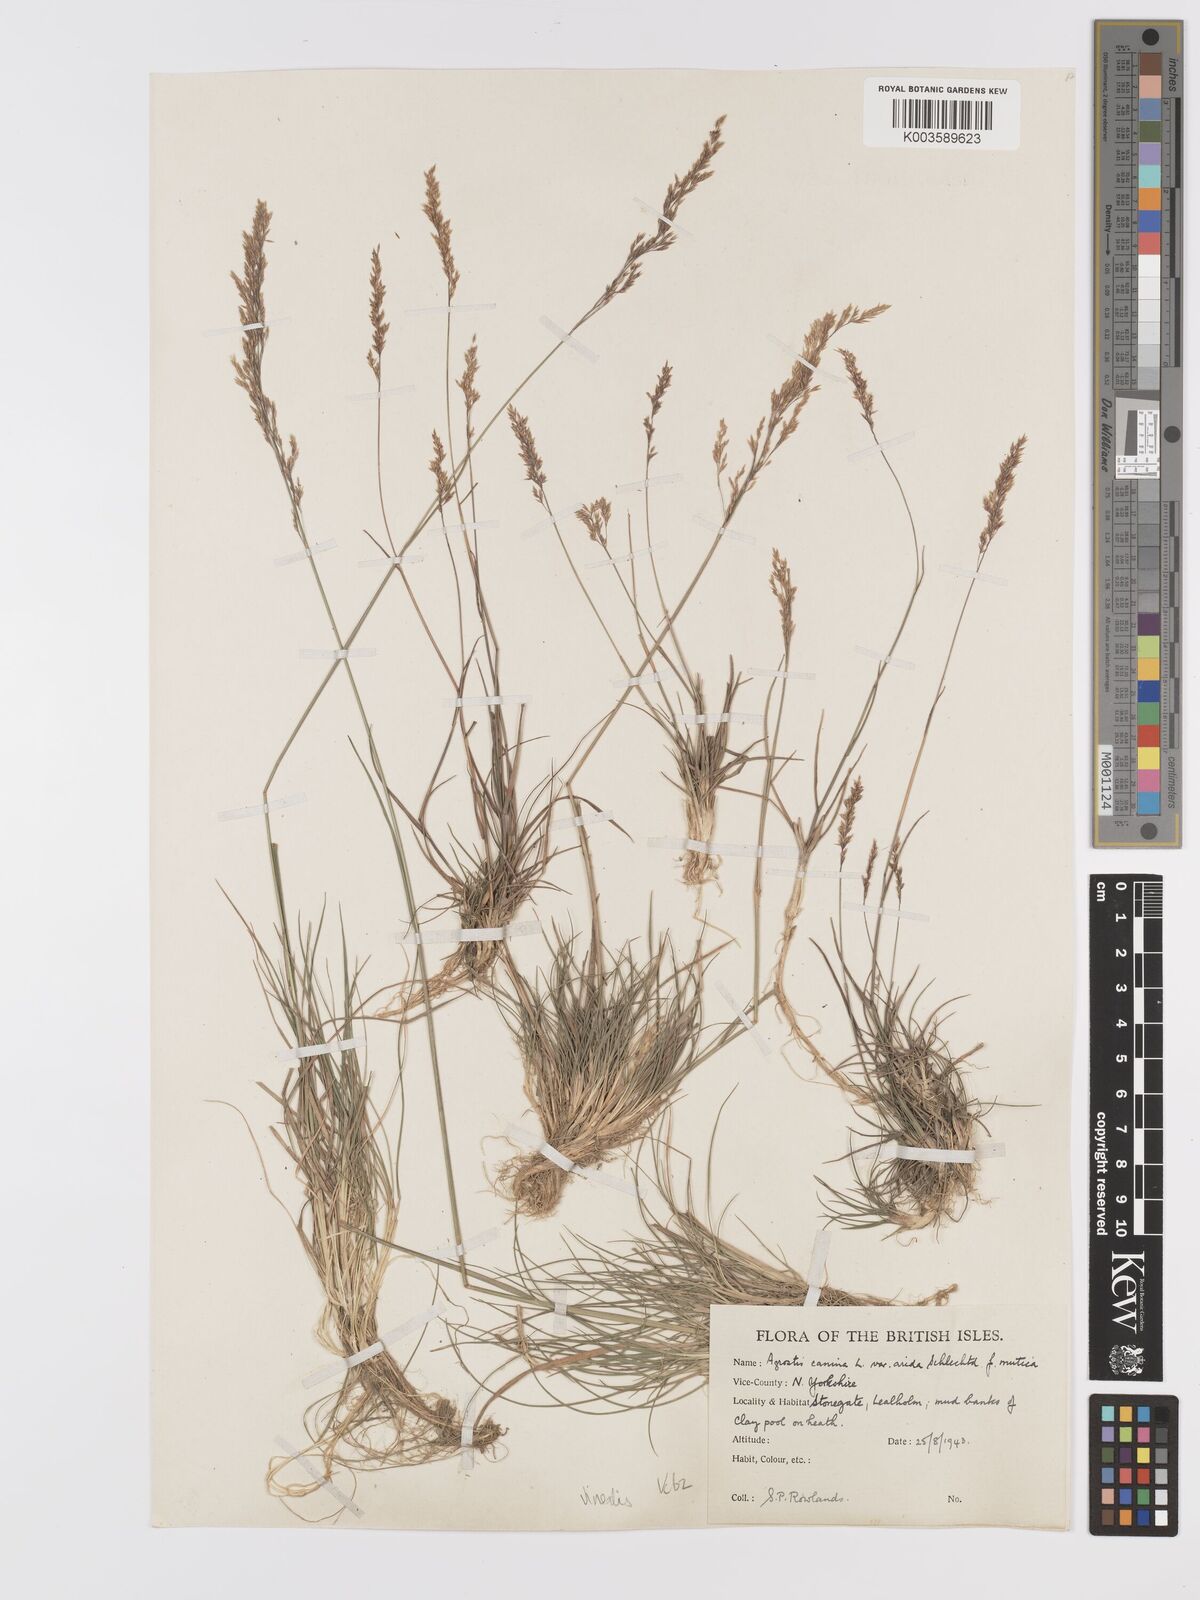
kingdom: Plantae
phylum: Tracheophyta
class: Liliopsida
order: Poales
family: Poaceae
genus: Agrostis
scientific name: Agrostis
